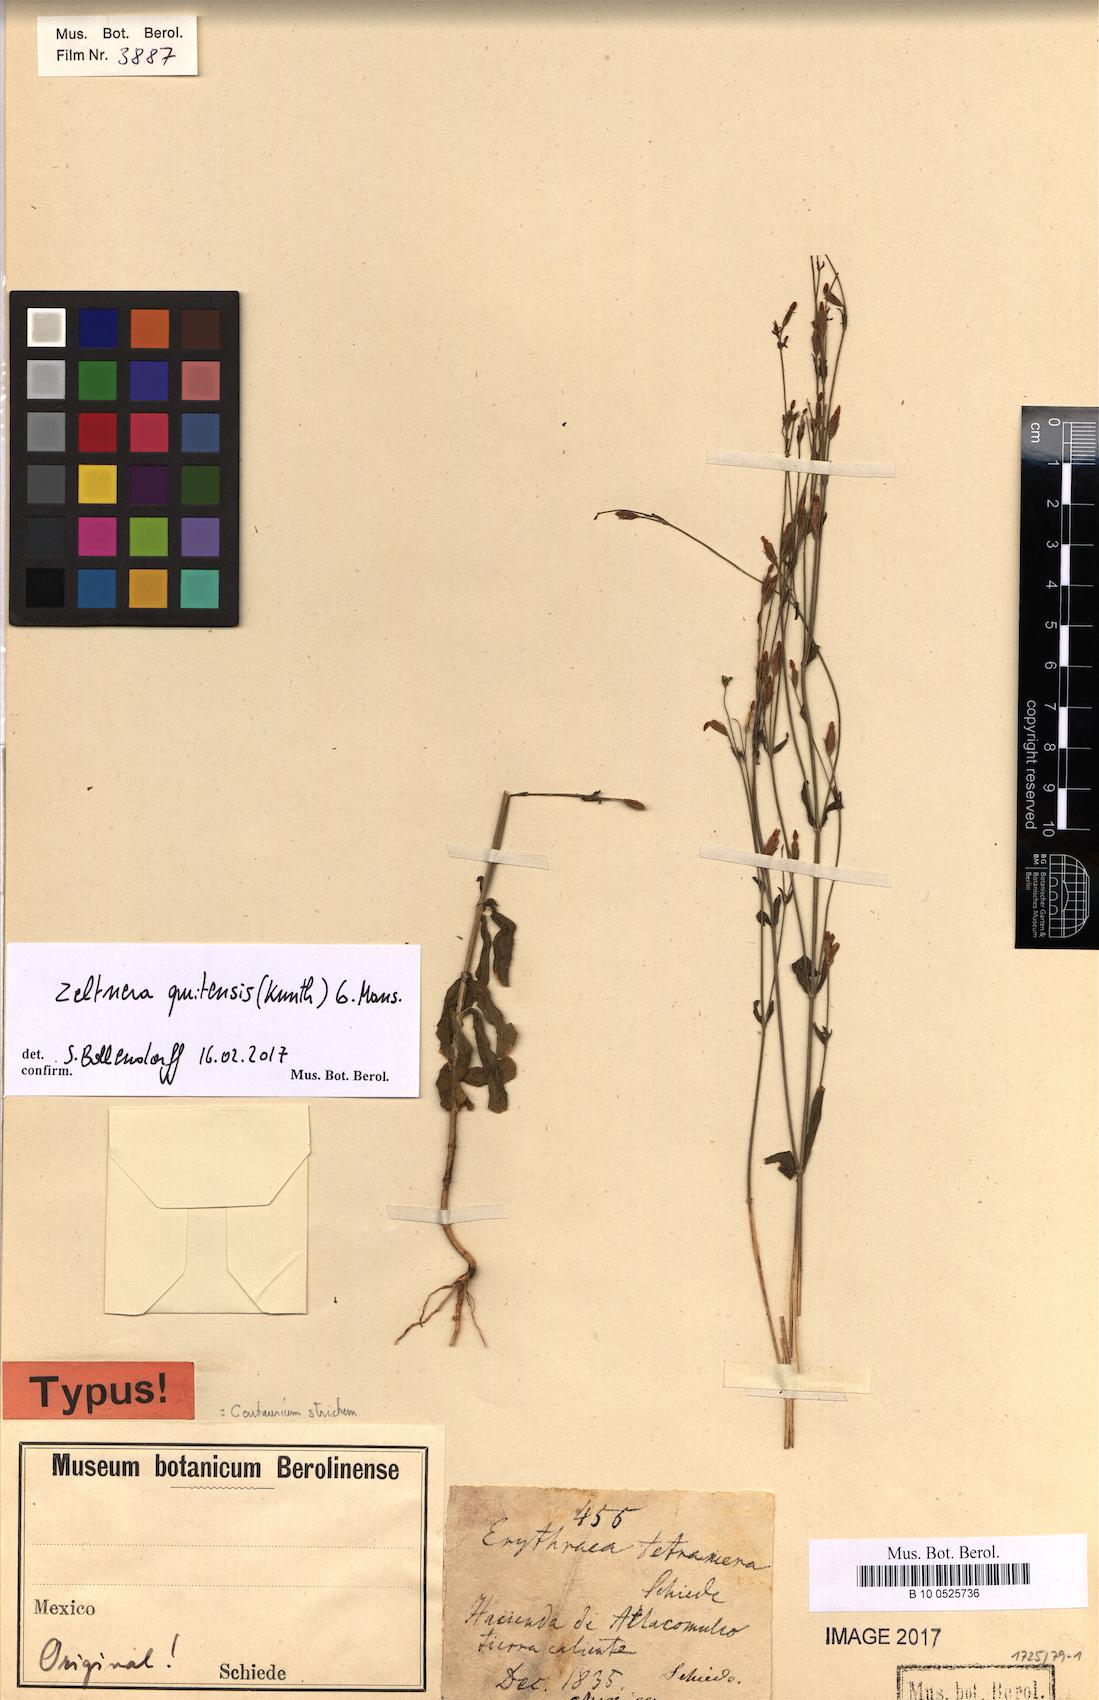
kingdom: Plantae
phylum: Tracheophyta
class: Magnoliopsida
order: Gentianales
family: Gentianaceae
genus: Zeltnera
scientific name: Zeltnera quitensis
